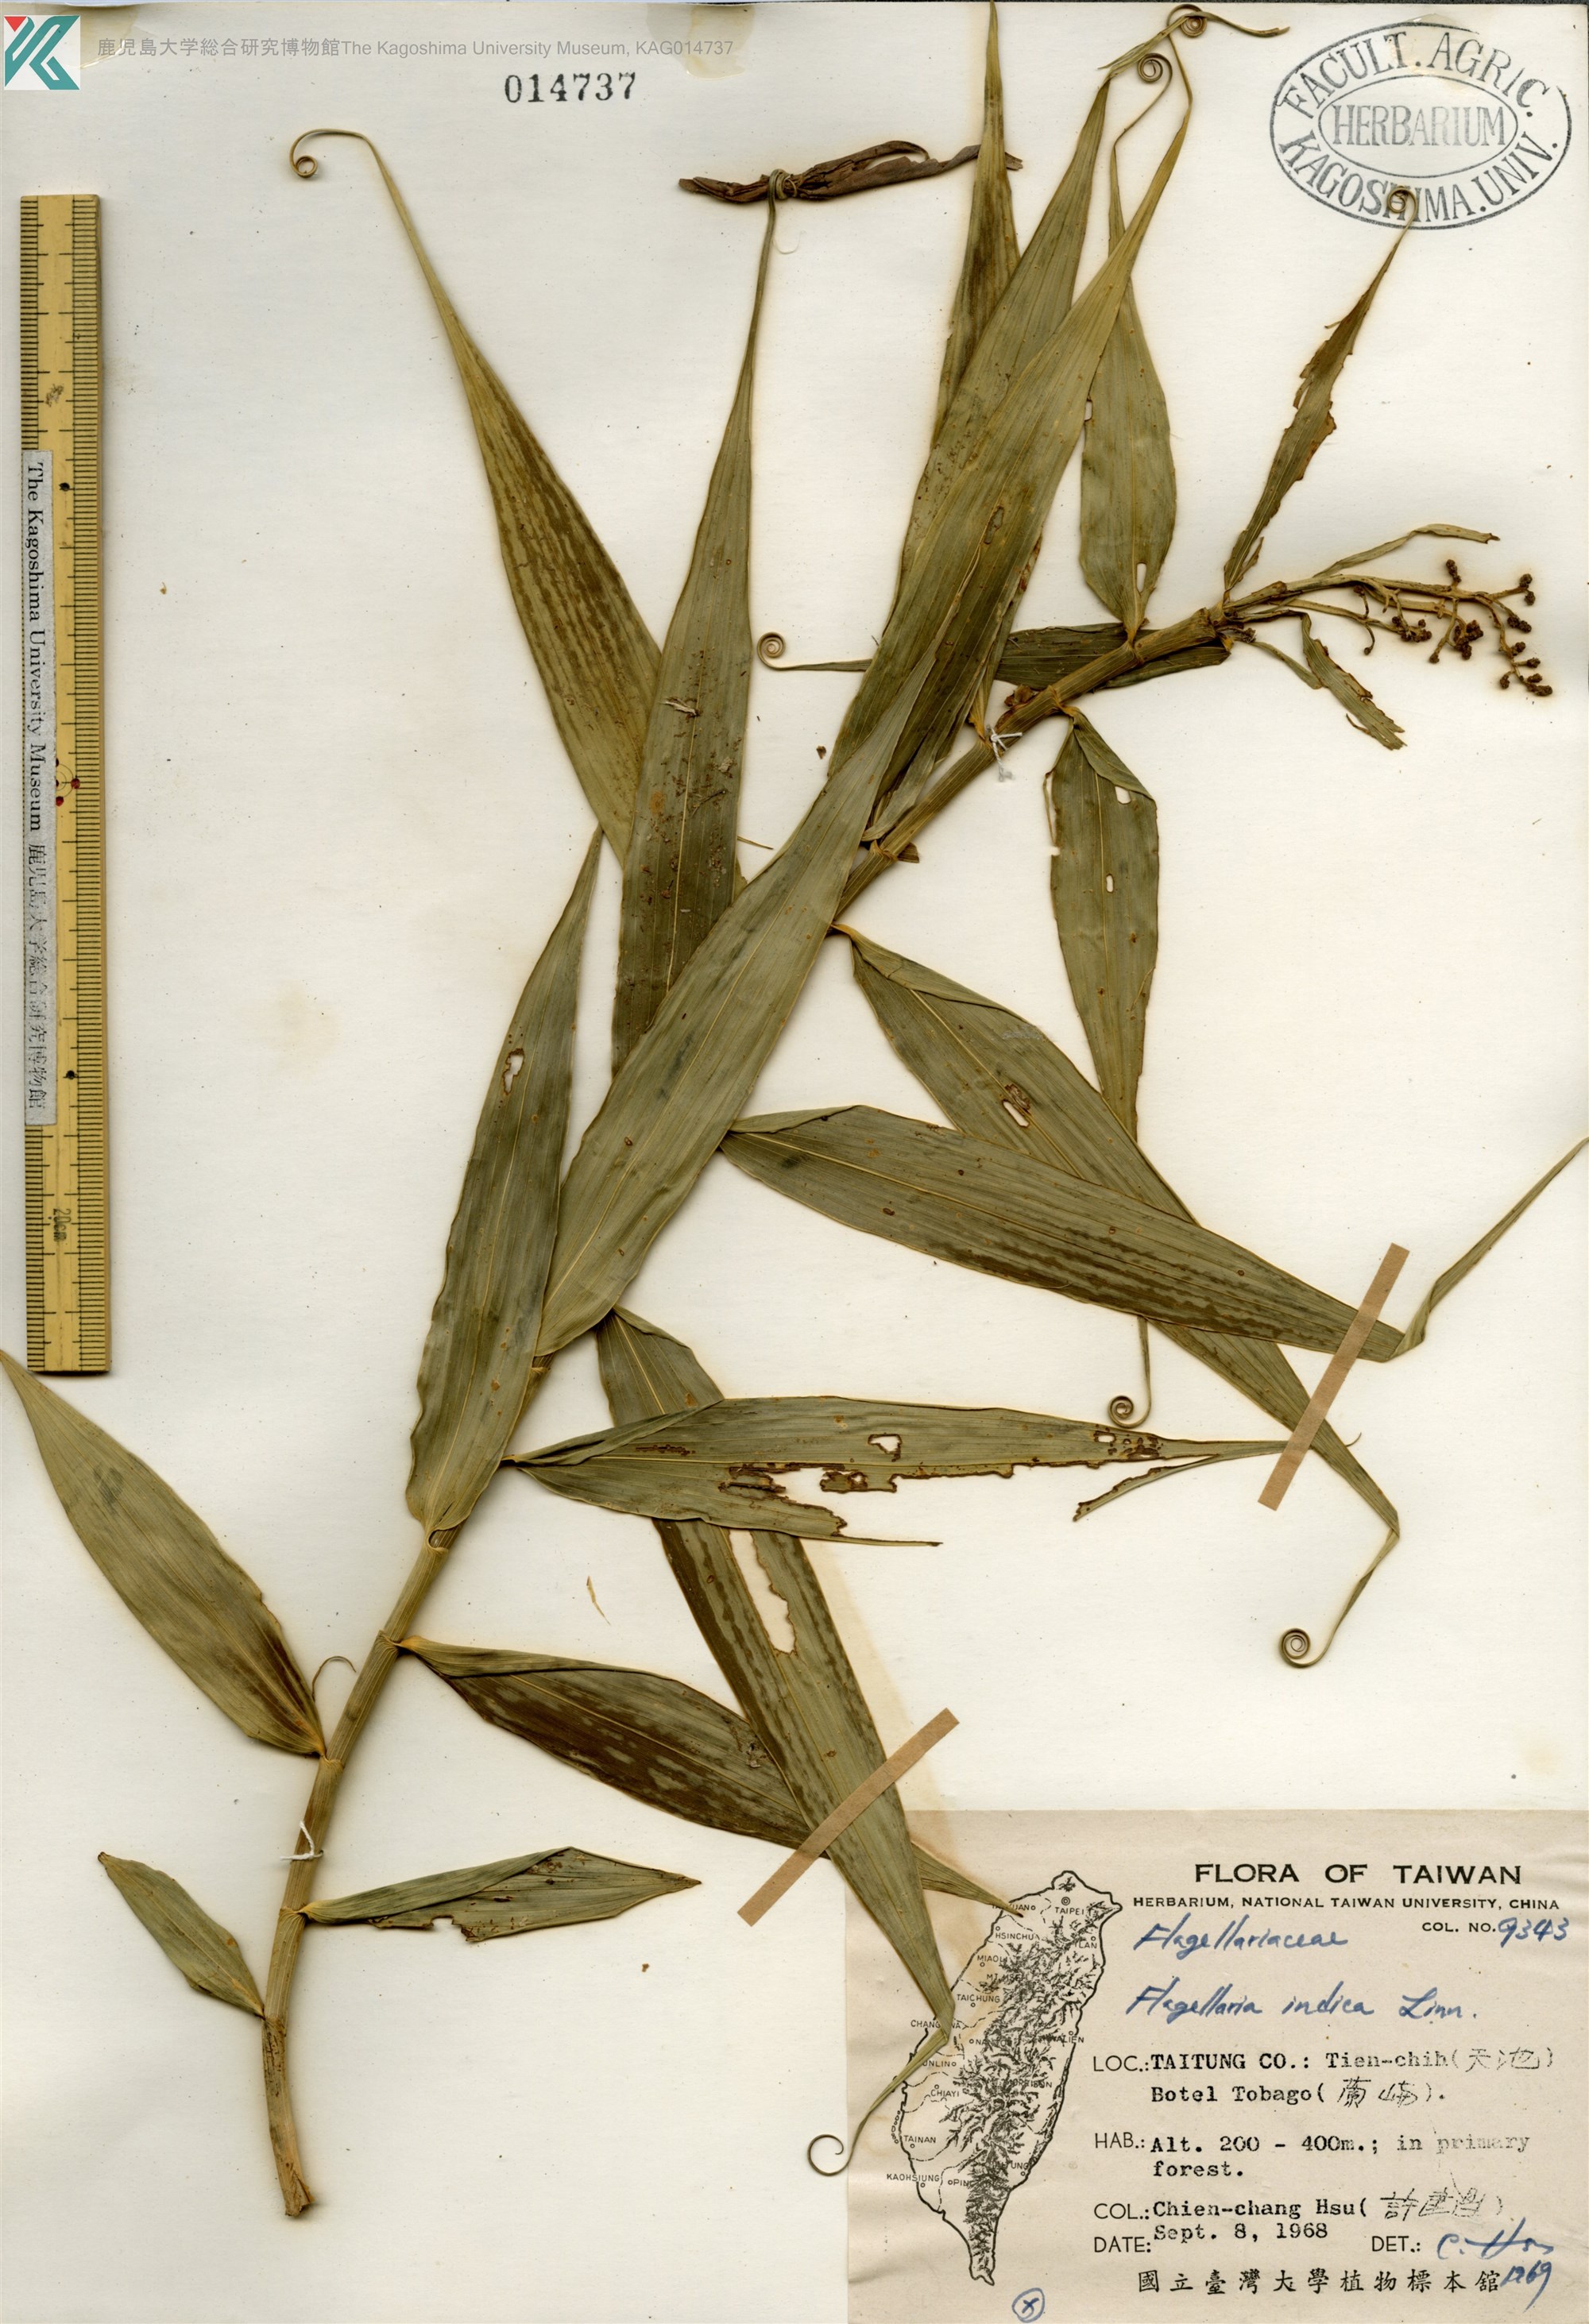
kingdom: Plantae
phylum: Tracheophyta
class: Liliopsida
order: Poales
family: Flagellariaceae
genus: Flagellaria
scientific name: Flagellaria indica
